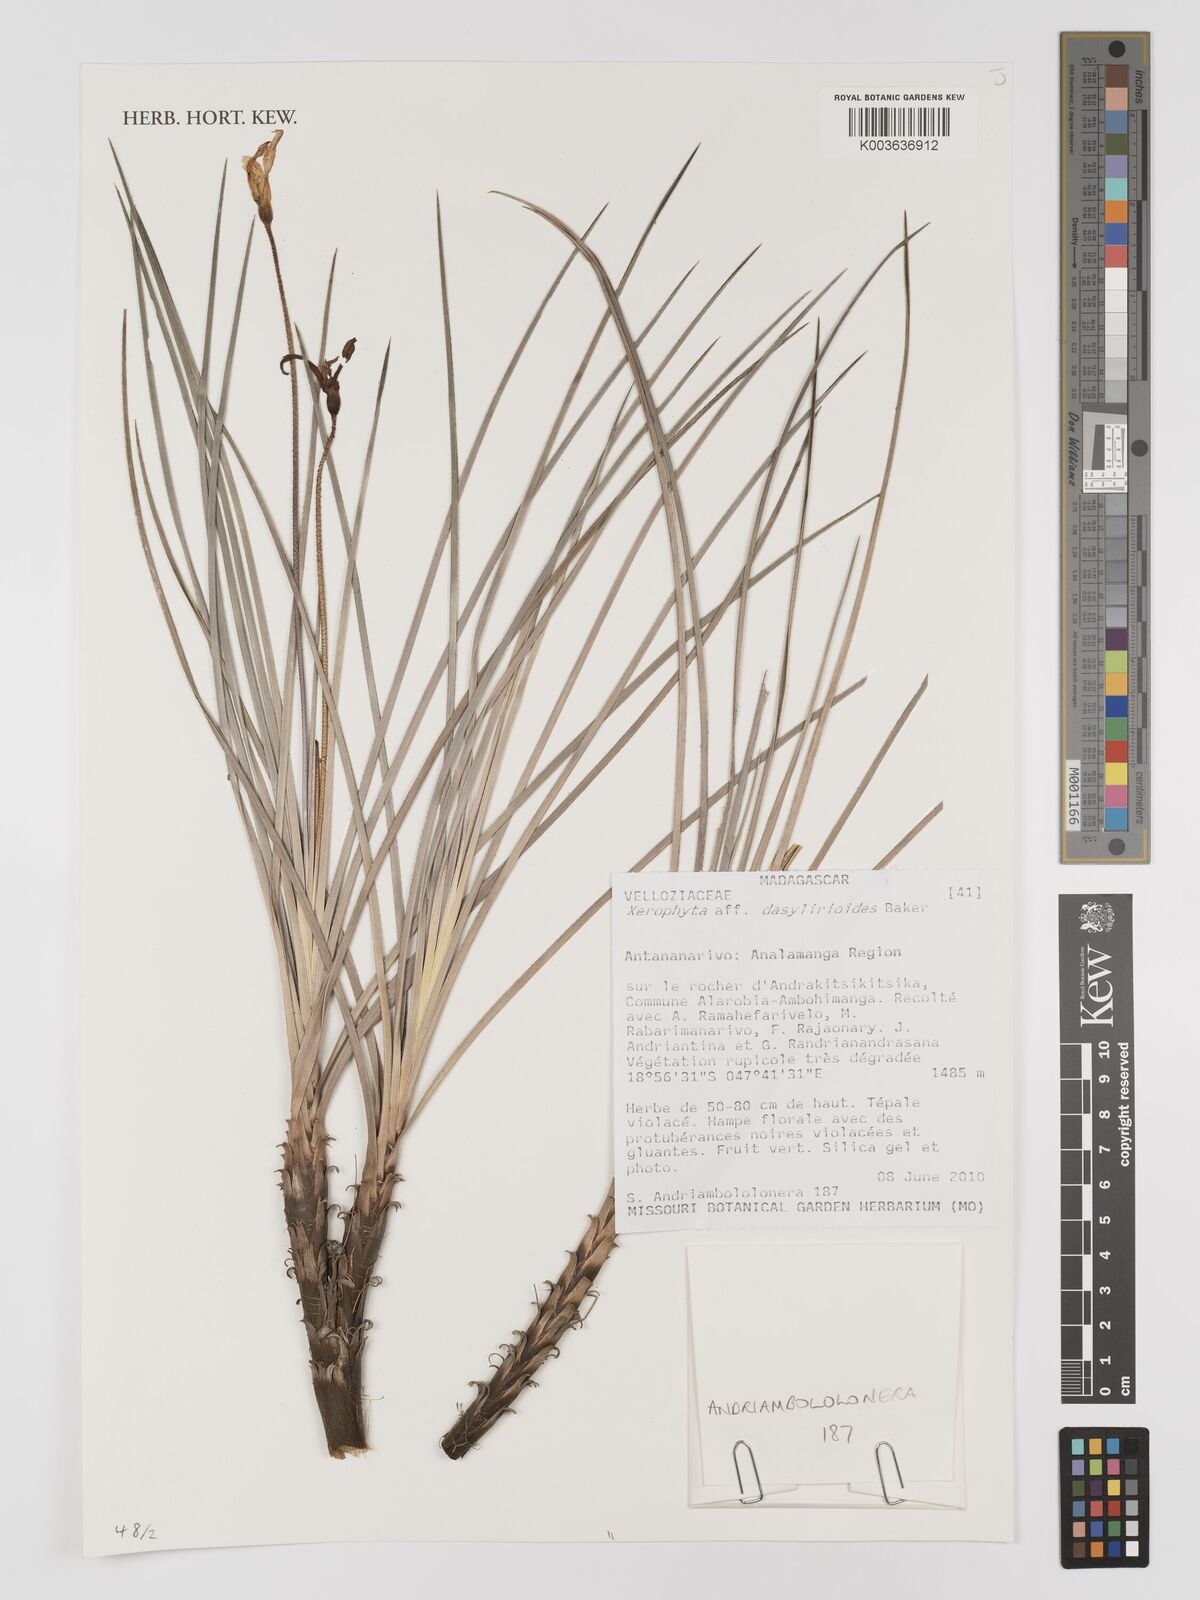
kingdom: Plantae
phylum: Tracheophyta
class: Liliopsida
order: Pandanales
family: Velloziaceae
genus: Xerophyta
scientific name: Xerophyta dasylirioides
